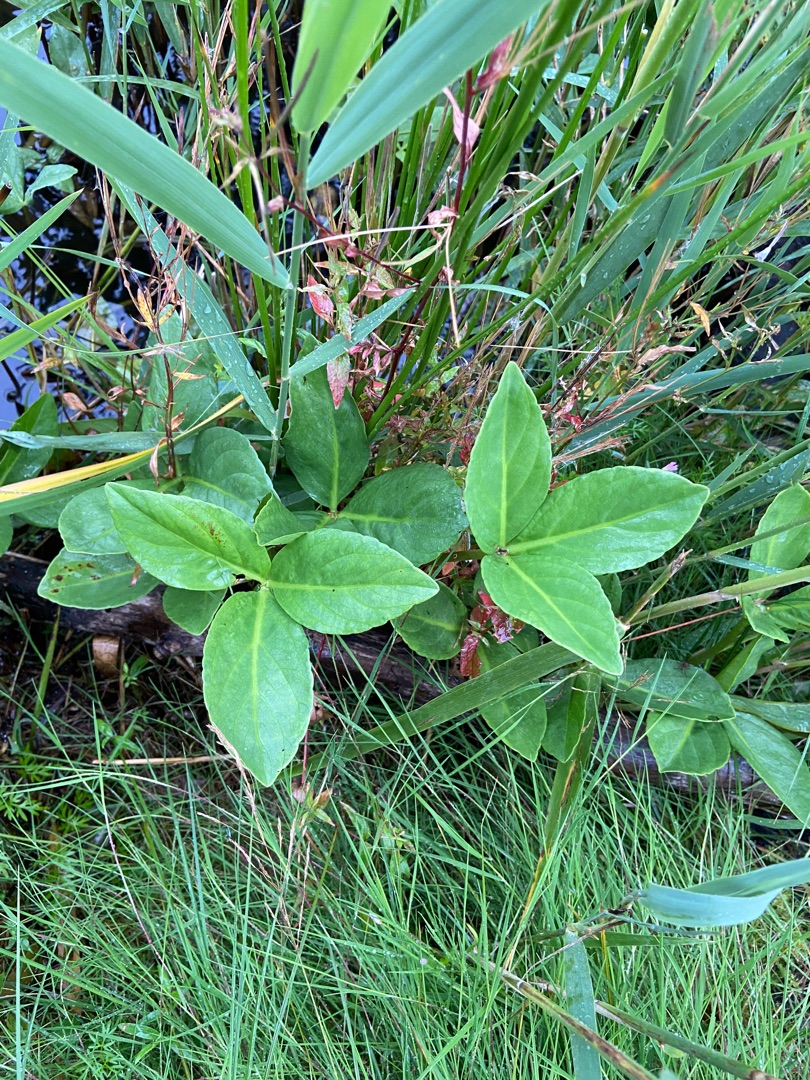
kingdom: Plantae
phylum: Tracheophyta
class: Magnoliopsida
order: Asterales
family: Menyanthaceae
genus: Menyanthes
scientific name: Menyanthes trifoliata
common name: Bukkeblad
